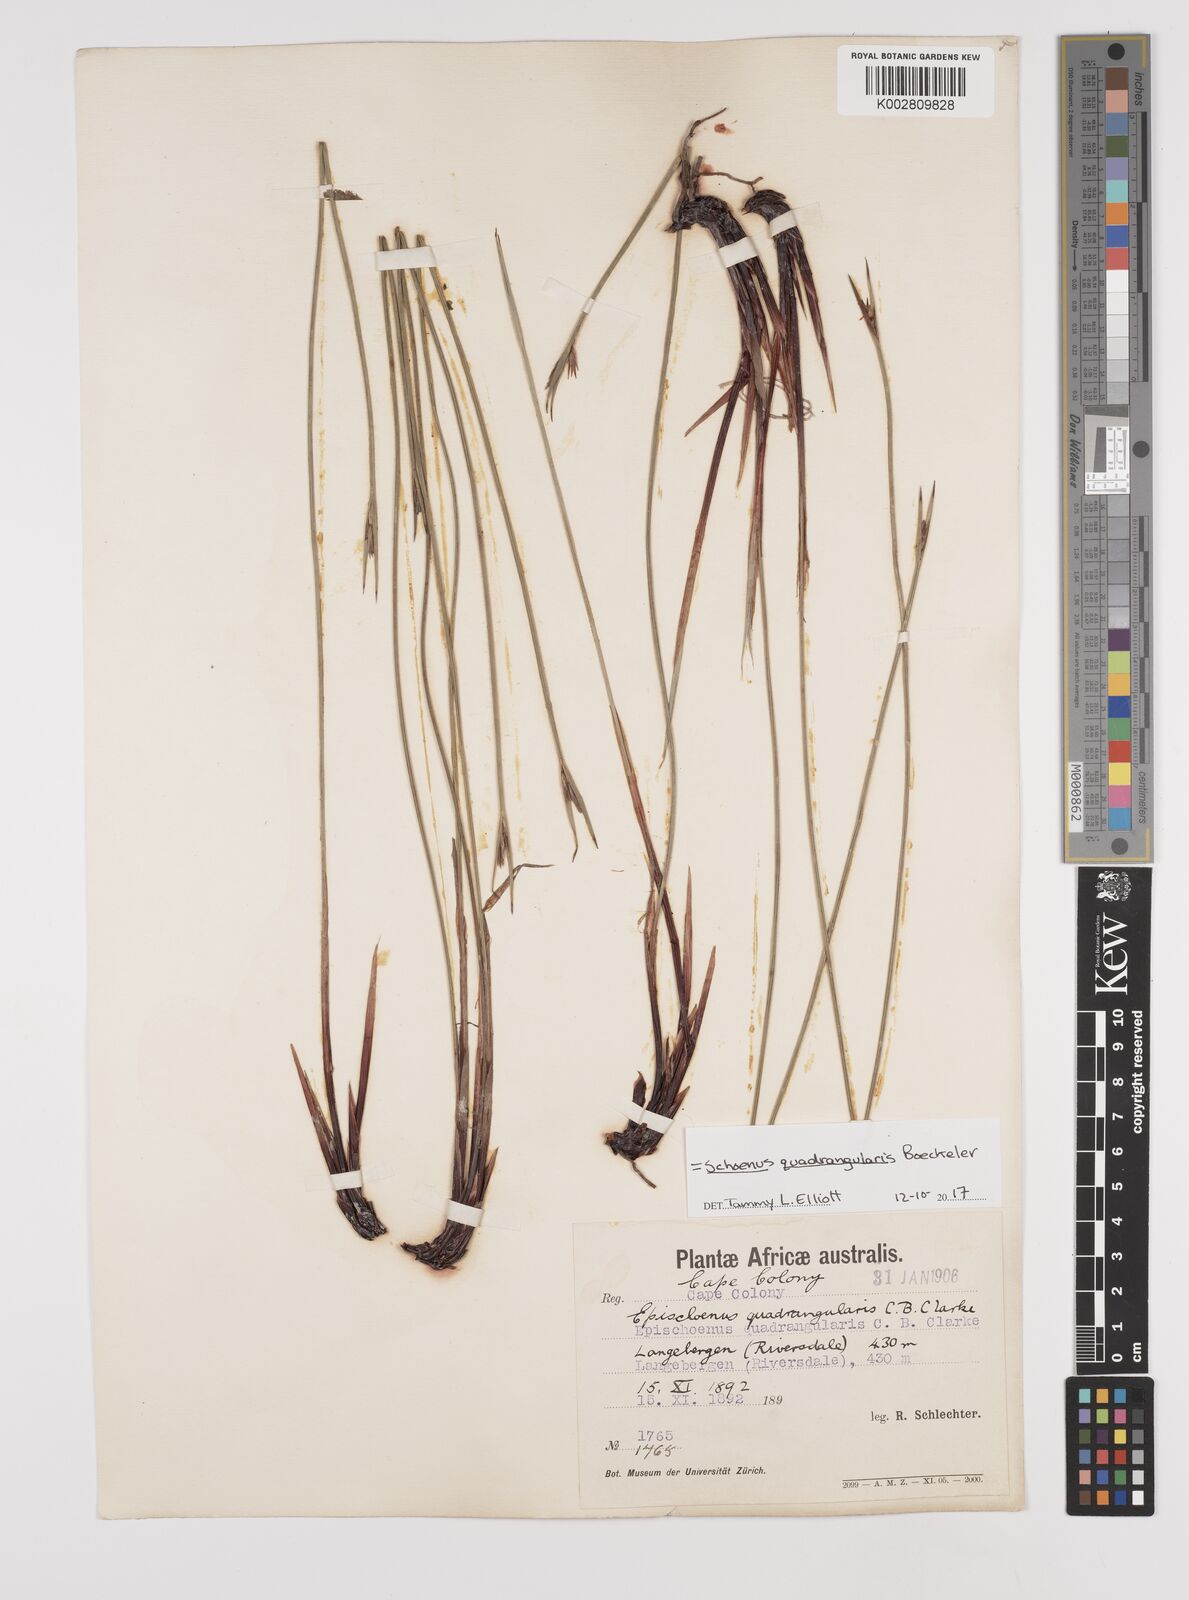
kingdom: Plantae
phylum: Tracheophyta
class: Liliopsida
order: Poales
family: Cyperaceae
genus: Schoenus
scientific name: Schoenus quadrangularis
